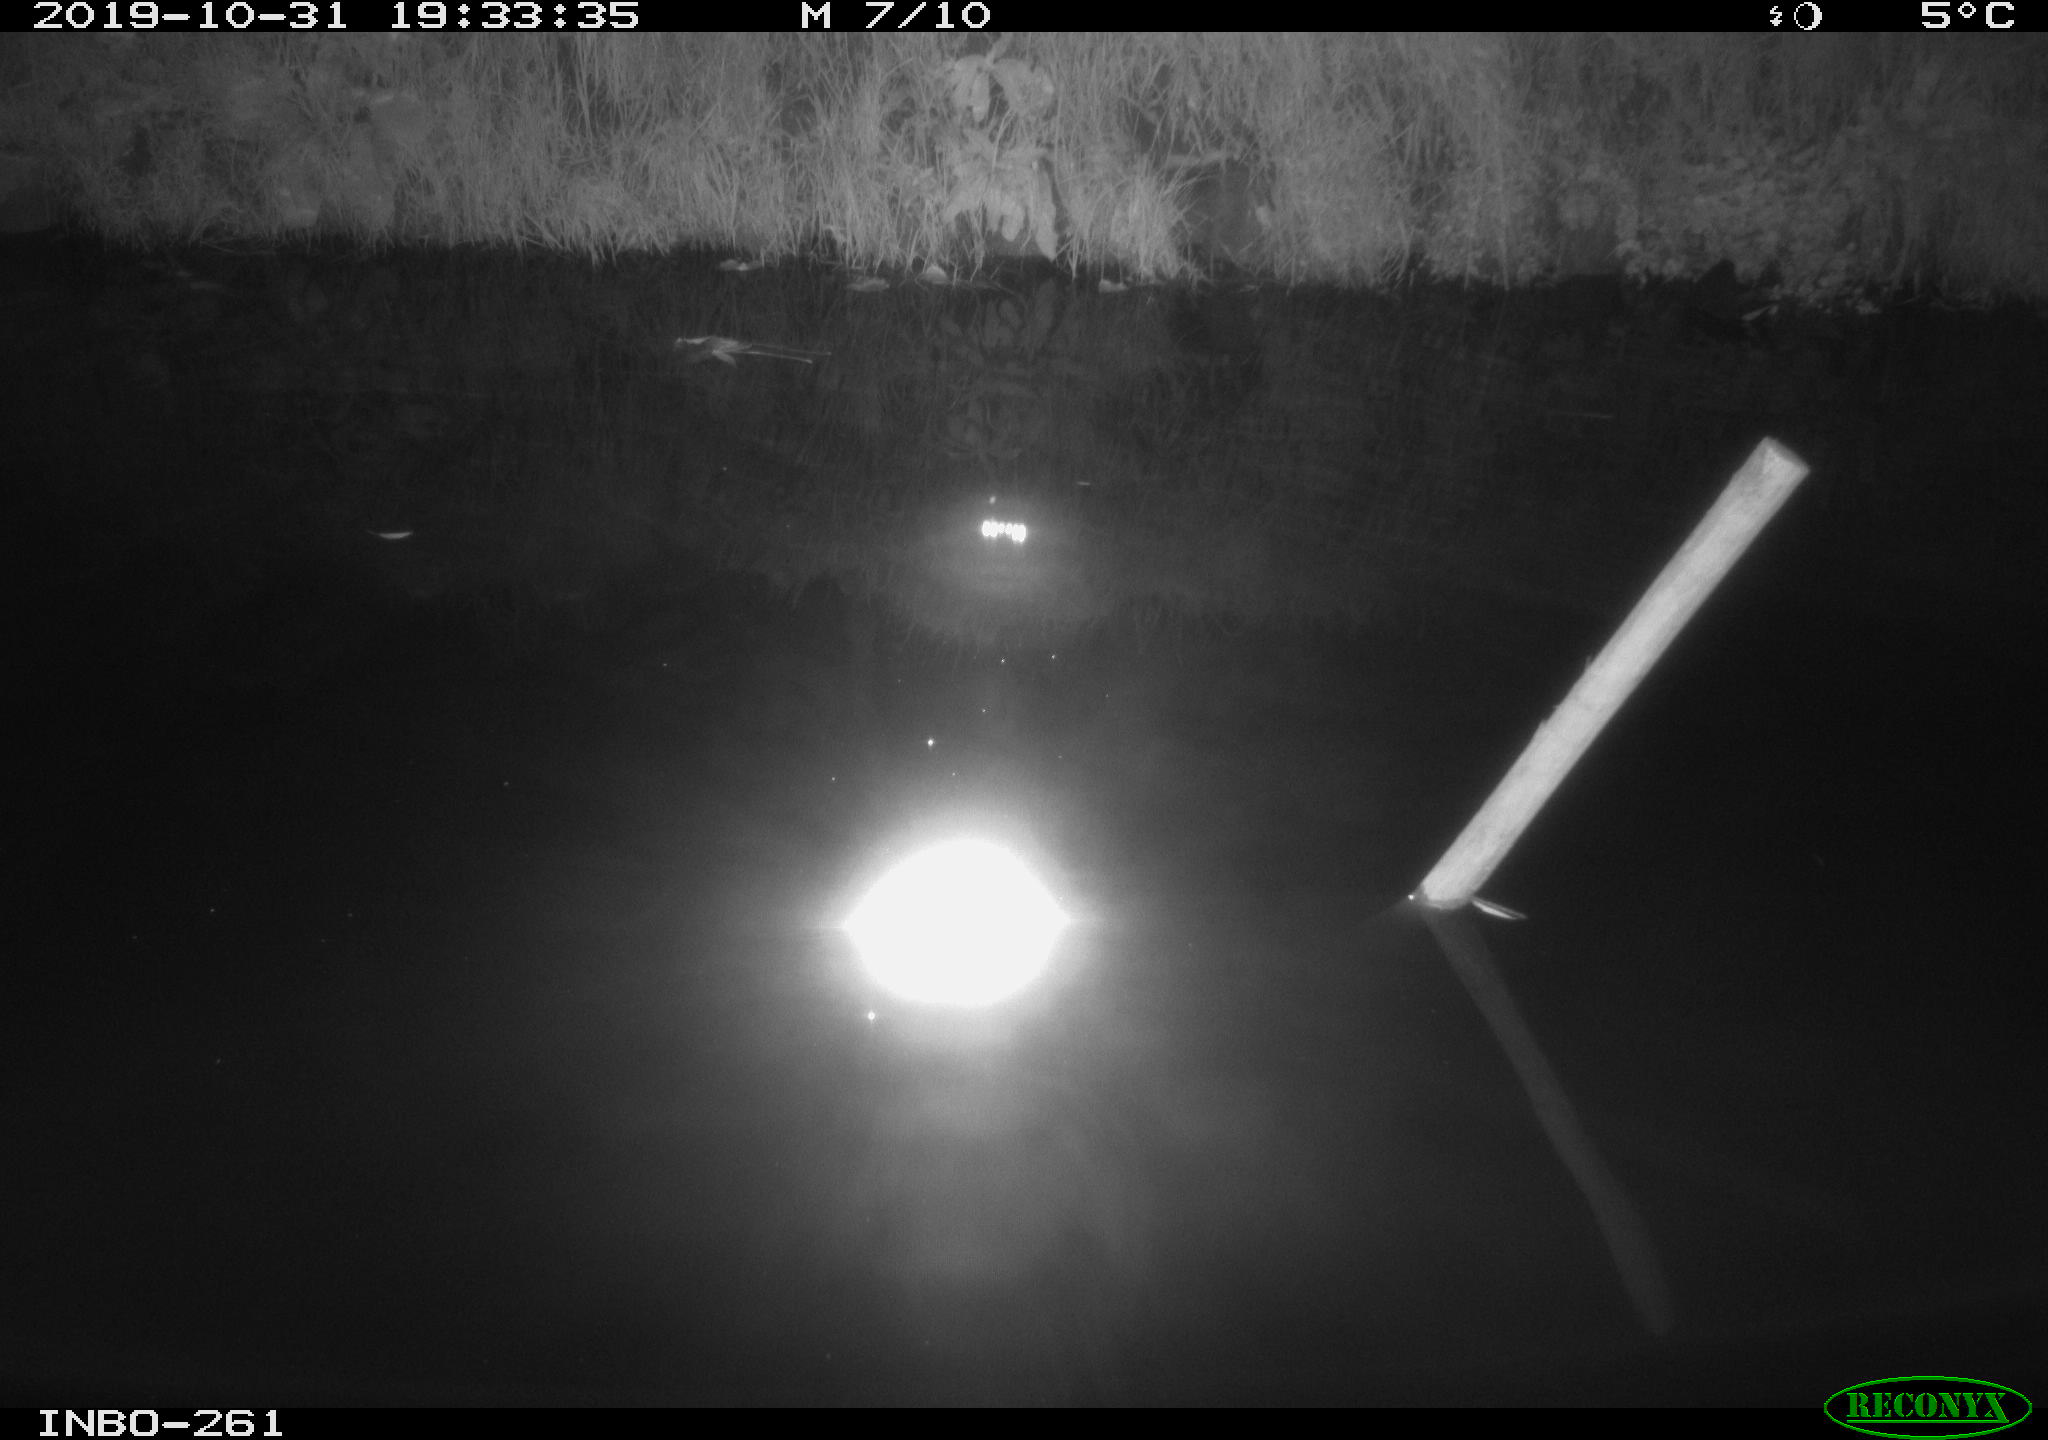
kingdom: Animalia
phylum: Chordata
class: Aves
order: Anseriformes
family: Anatidae
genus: Anas
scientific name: Anas platyrhynchos
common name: Mallard
